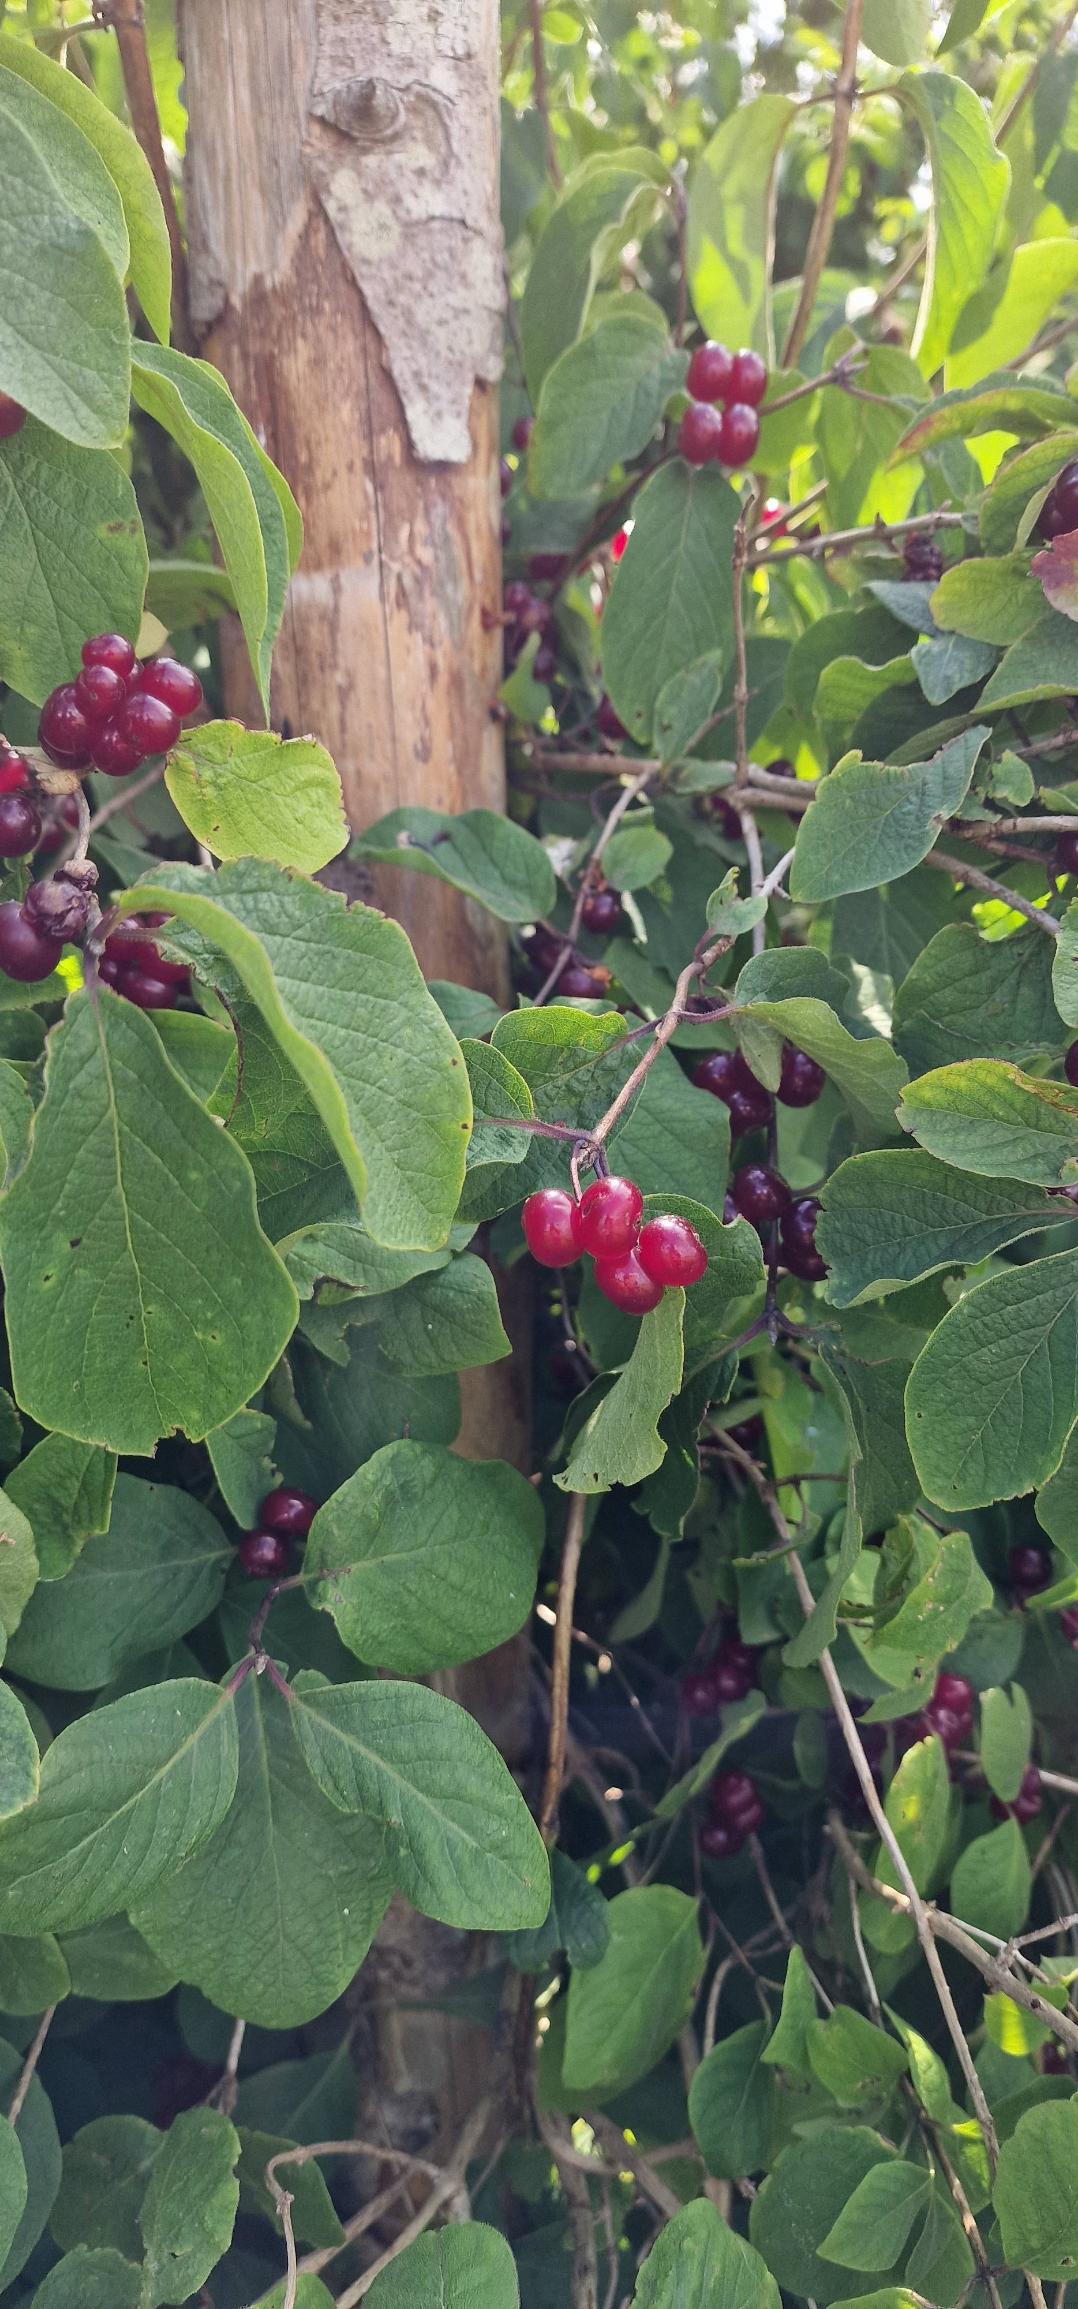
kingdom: Plantae
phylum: Tracheophyta
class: Magnoliopsida
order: Dipsacales
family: Caprifoliaceae
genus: Lonicera
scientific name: Lonicera xylosteum
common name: Dunet gedeblad
